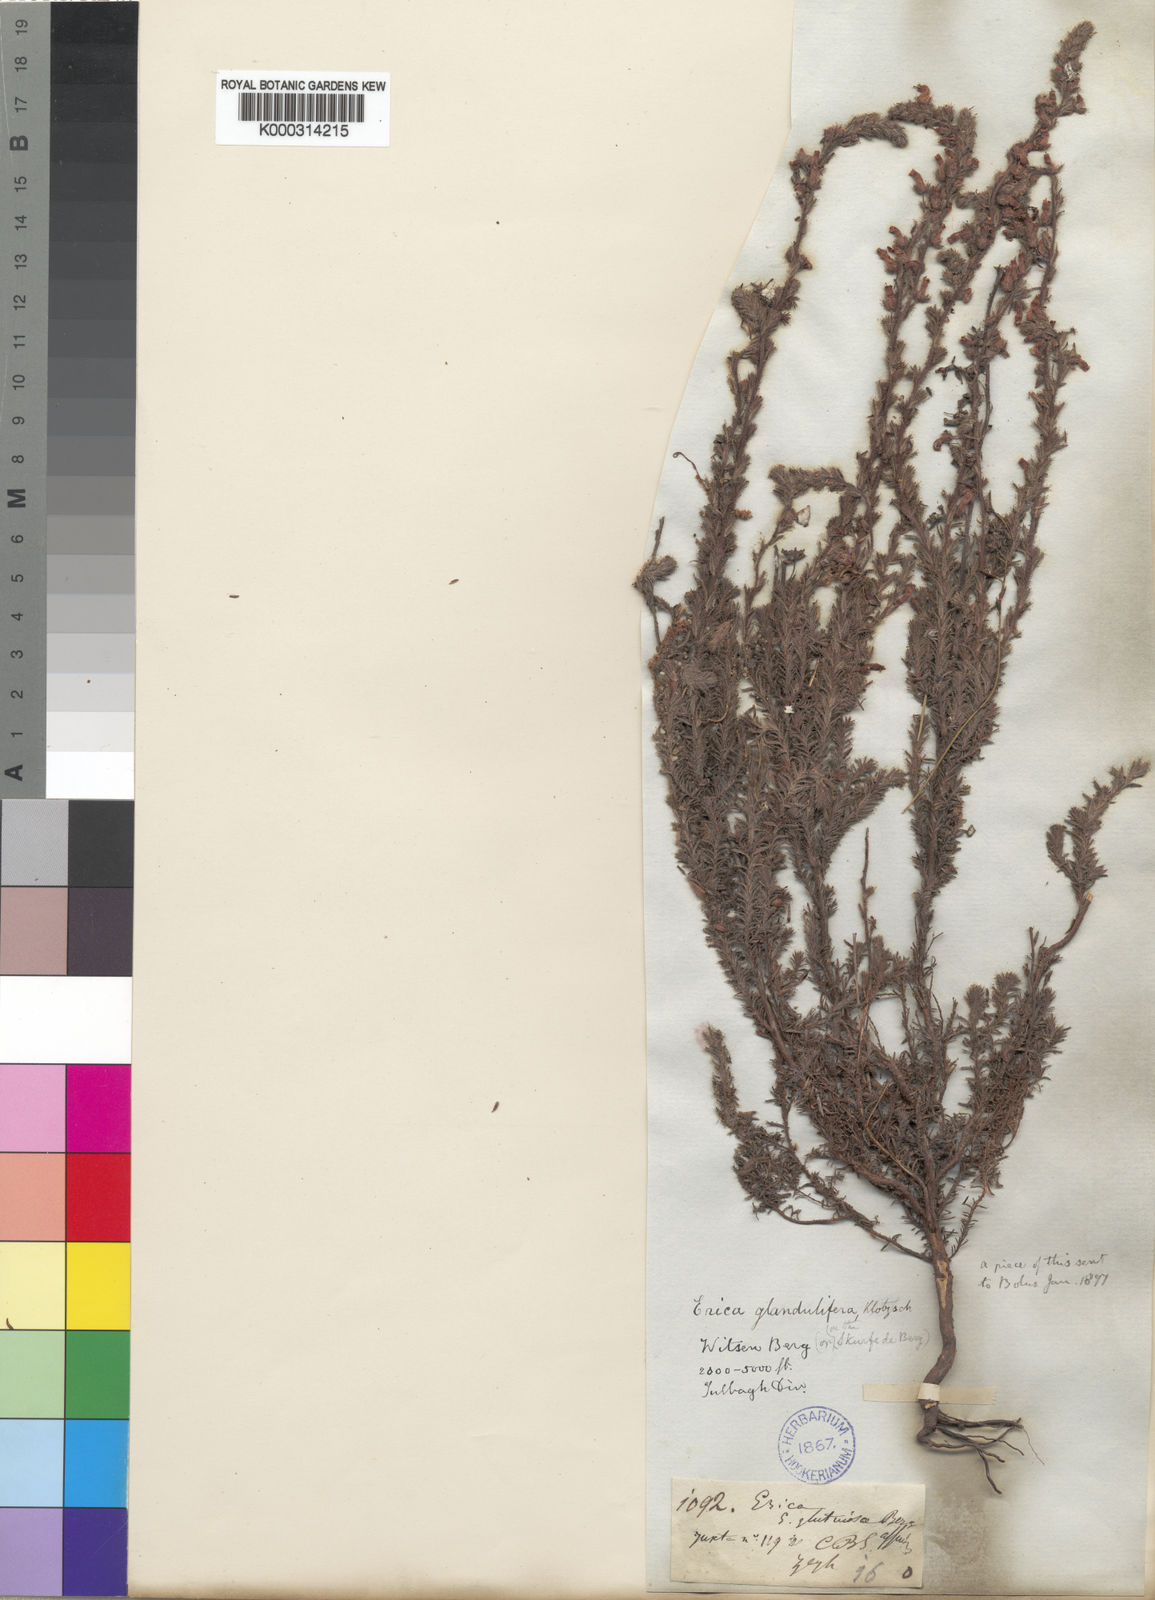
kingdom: Plantae
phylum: Tracheophyta
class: Magnoliopsida
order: Ericales
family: Ericaceae
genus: Erica
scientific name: Erica glandulifera
